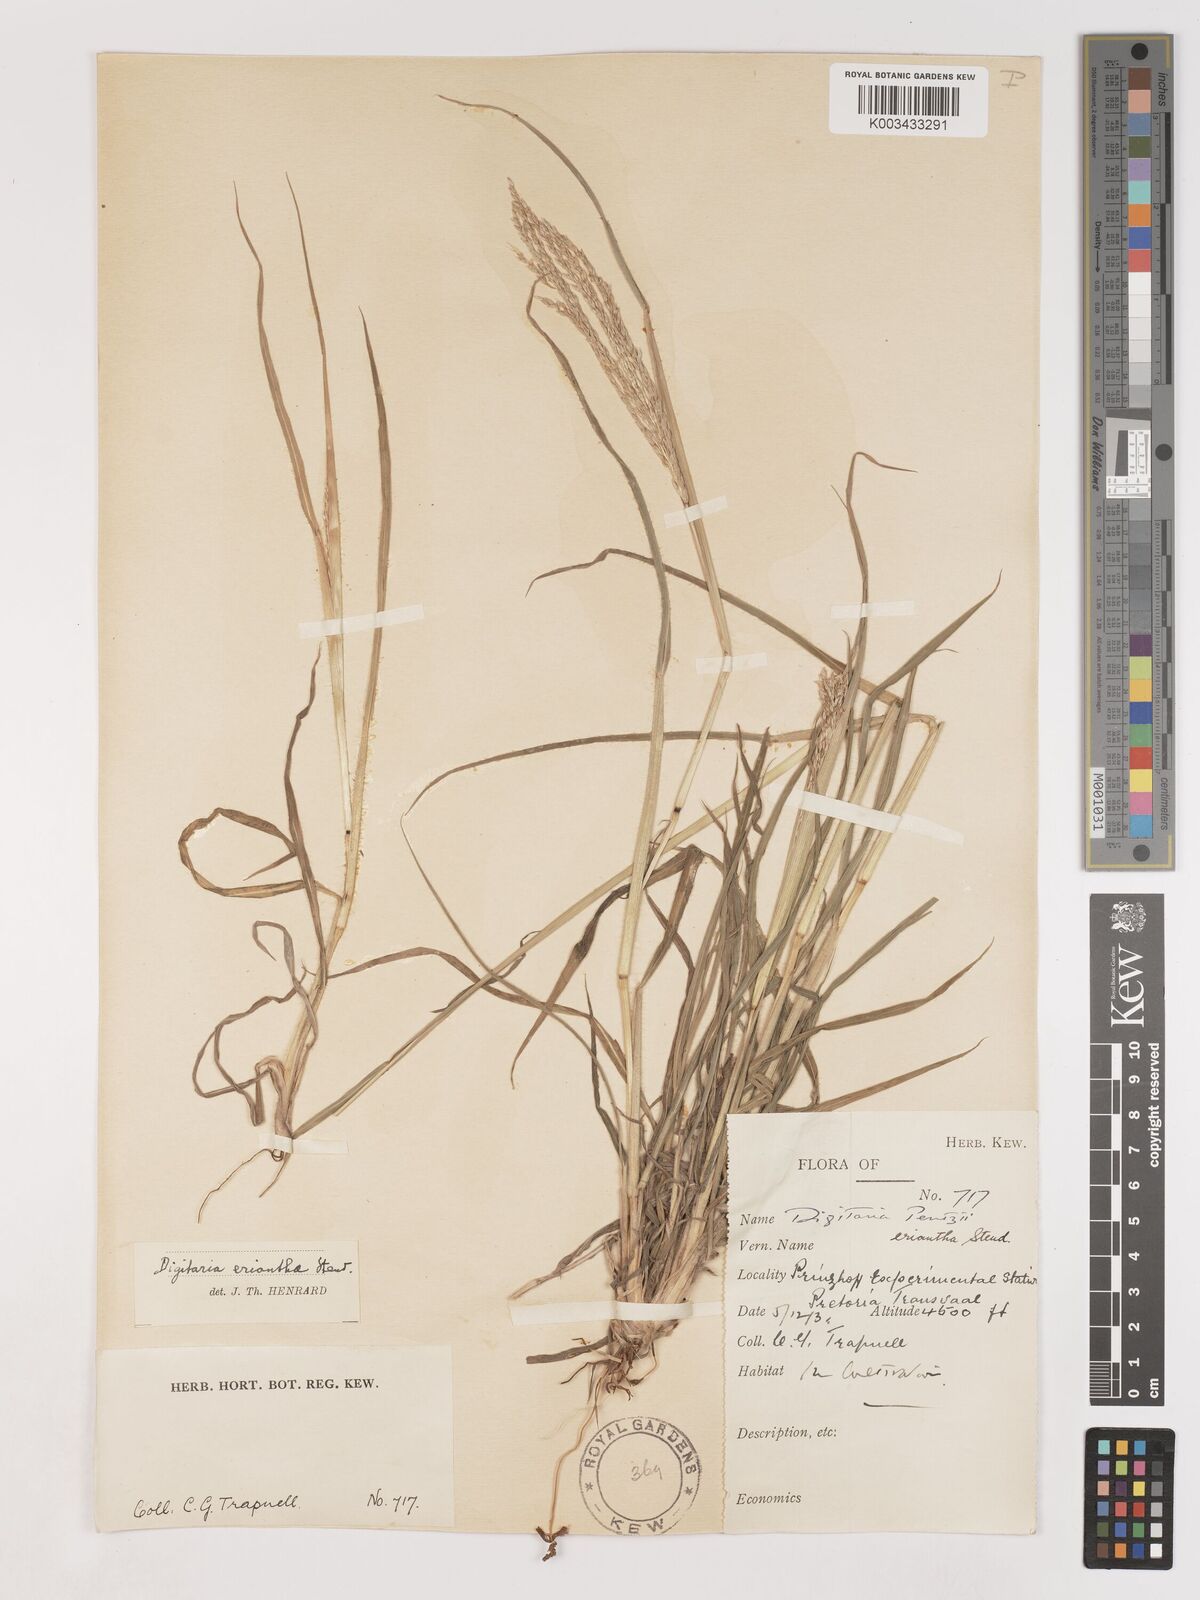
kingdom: Plantae
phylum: Tracheophyta
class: Liliopsida
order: Poales
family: Poaceae
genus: Digitaria
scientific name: Digitaria eriantha
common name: Digitgrass
